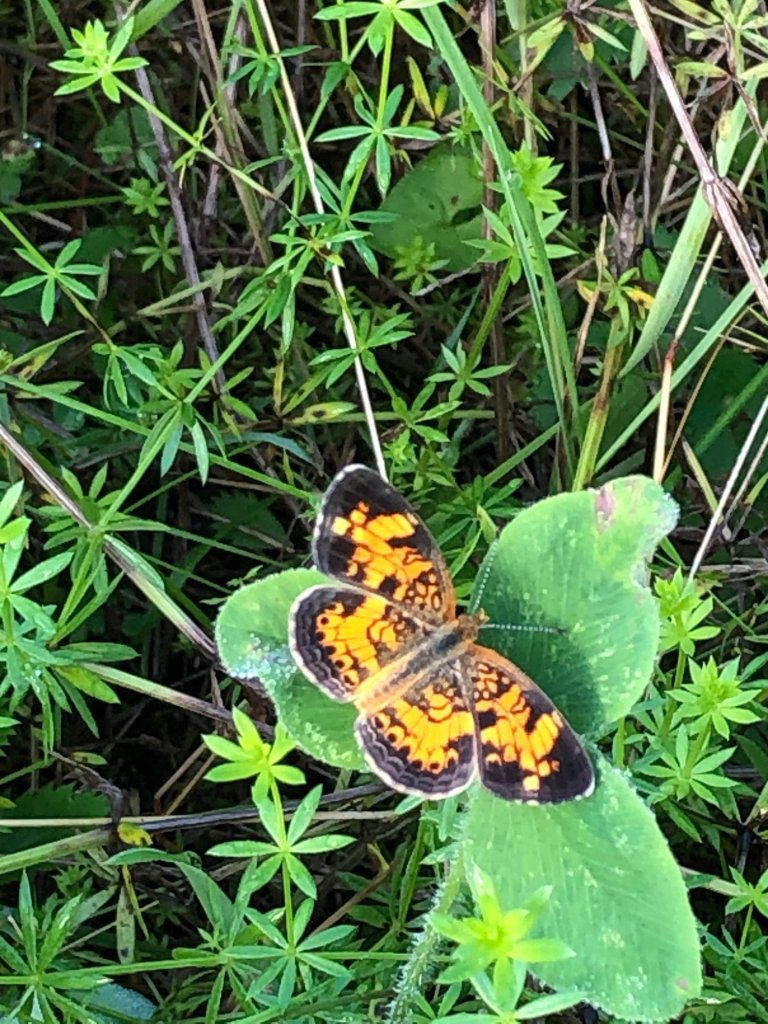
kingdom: Animalia
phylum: Arthropoda
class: Insecta
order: Lepidoptera
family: Nymphalidae
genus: Phyciodes
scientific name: Phyciodes
